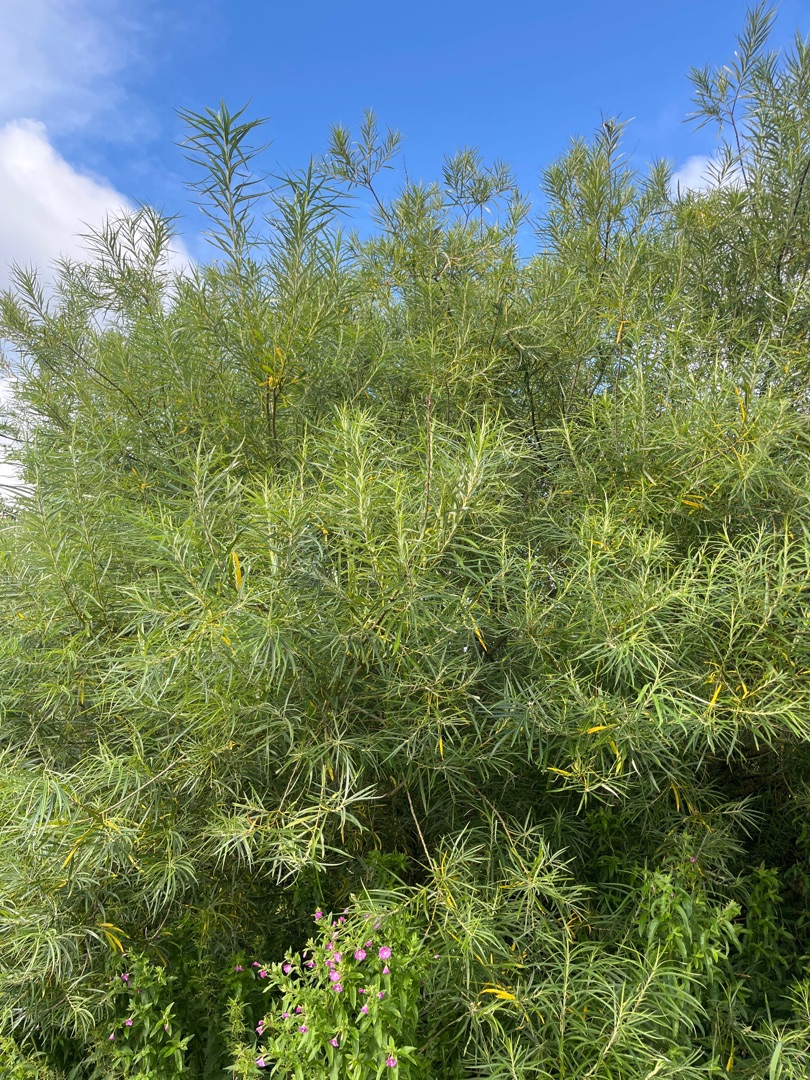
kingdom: Plantae
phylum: Tracheophyta
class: Magnoliopsida
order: Malpighiales
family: Salicaceae
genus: Salix
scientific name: Salix viminalis
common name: Bånd-pil
